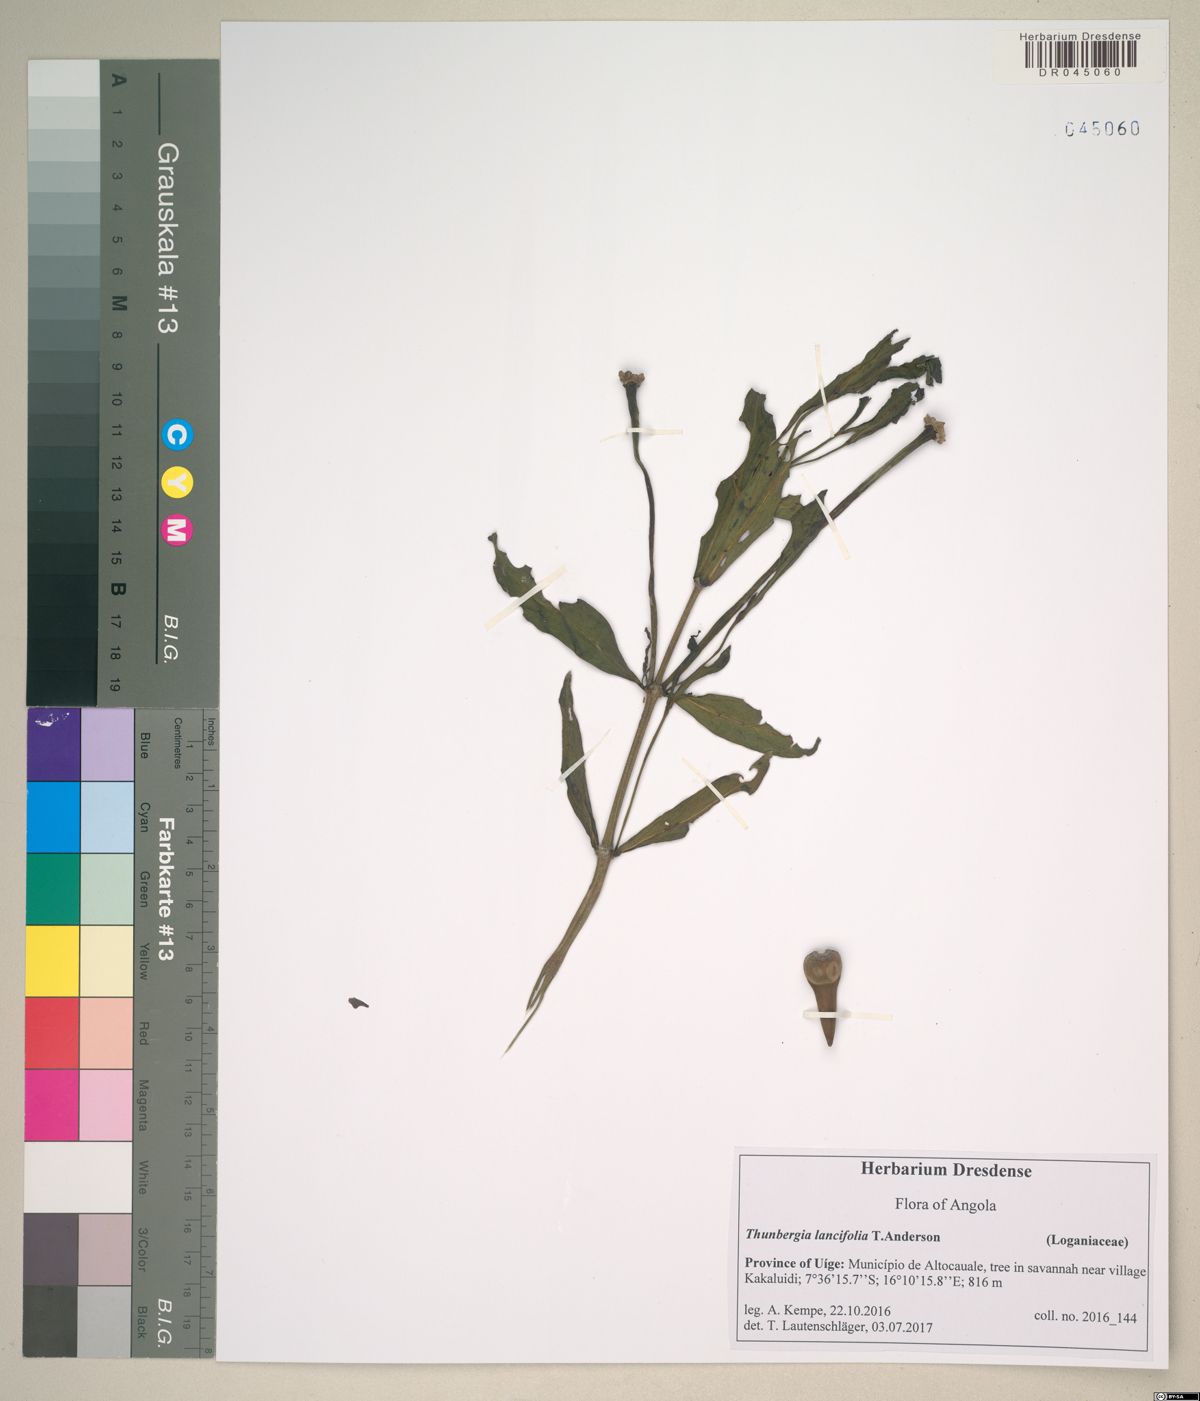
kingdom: Plantae
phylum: Tracheophyta
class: Magnoliopsida
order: Lamiales
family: Acanthaceae
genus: Thunbergia
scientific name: Thunbergia lancifolia
